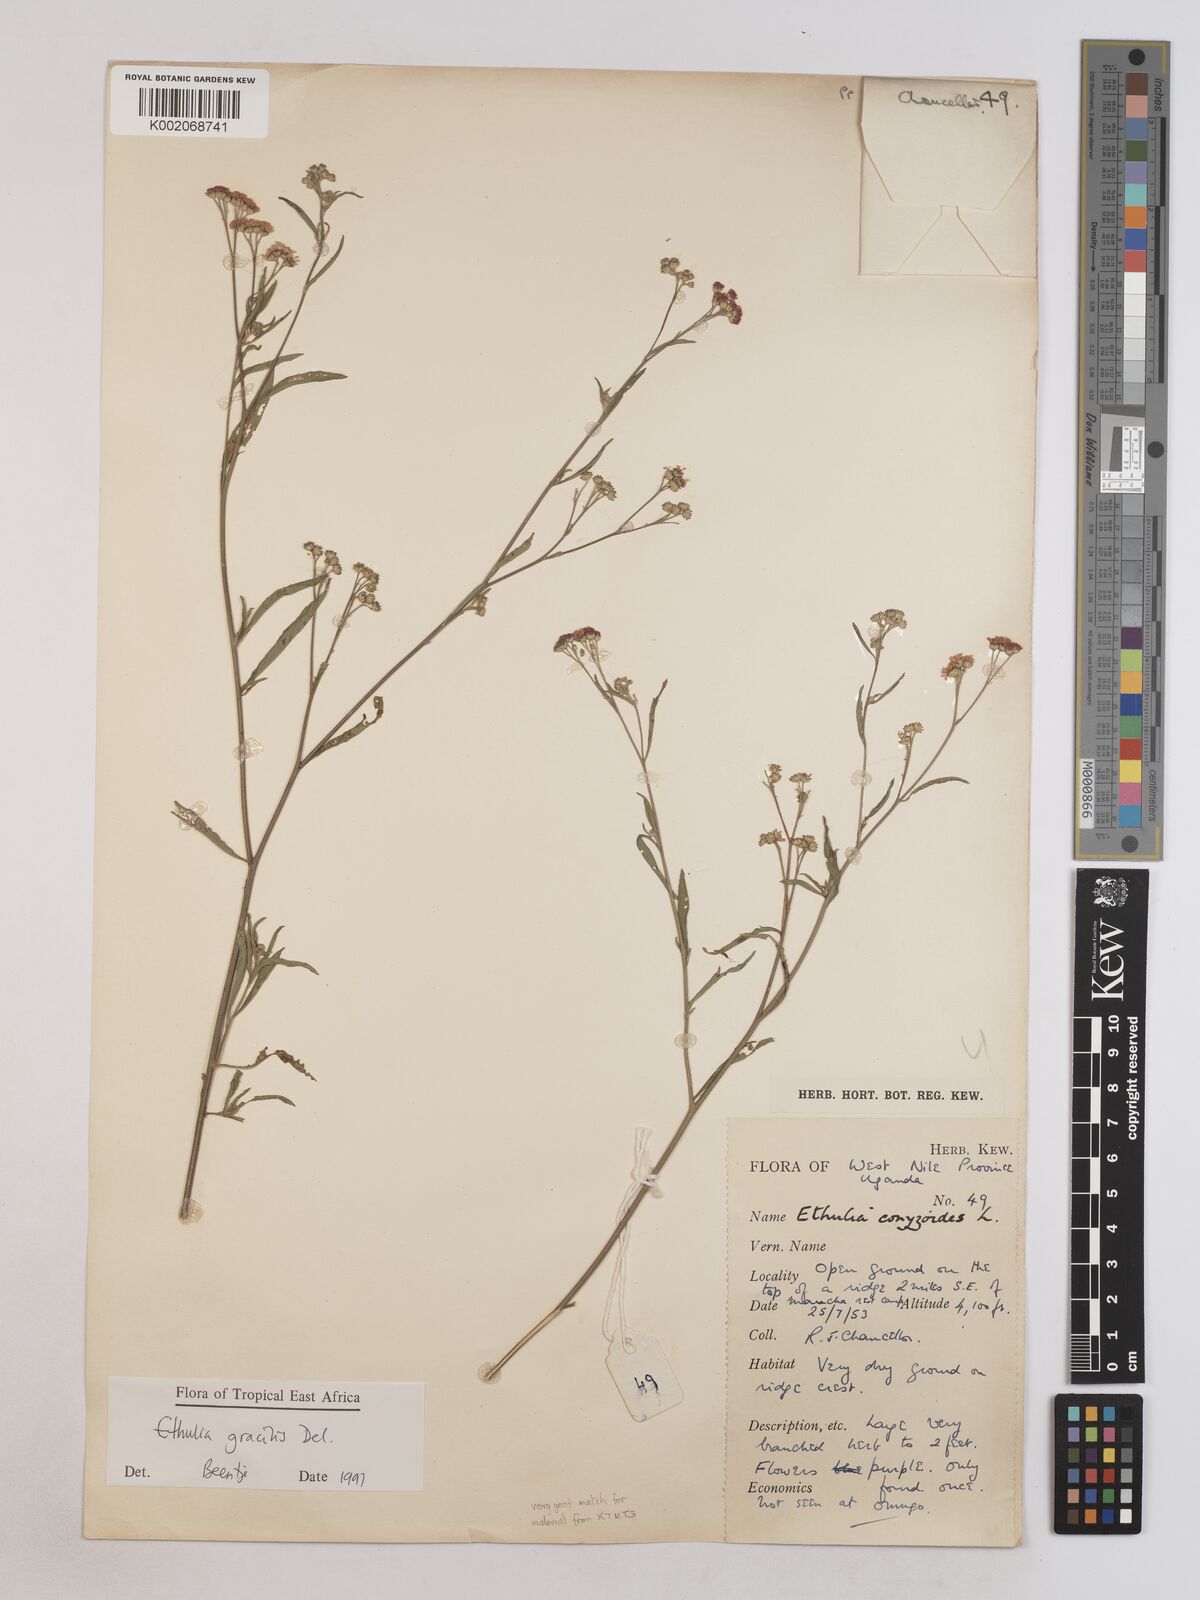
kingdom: Plantae
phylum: Tracheophyta
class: Magnoliopsida
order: Asterales
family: Asteraceae
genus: Ethulia
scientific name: Ethulia gracilis
